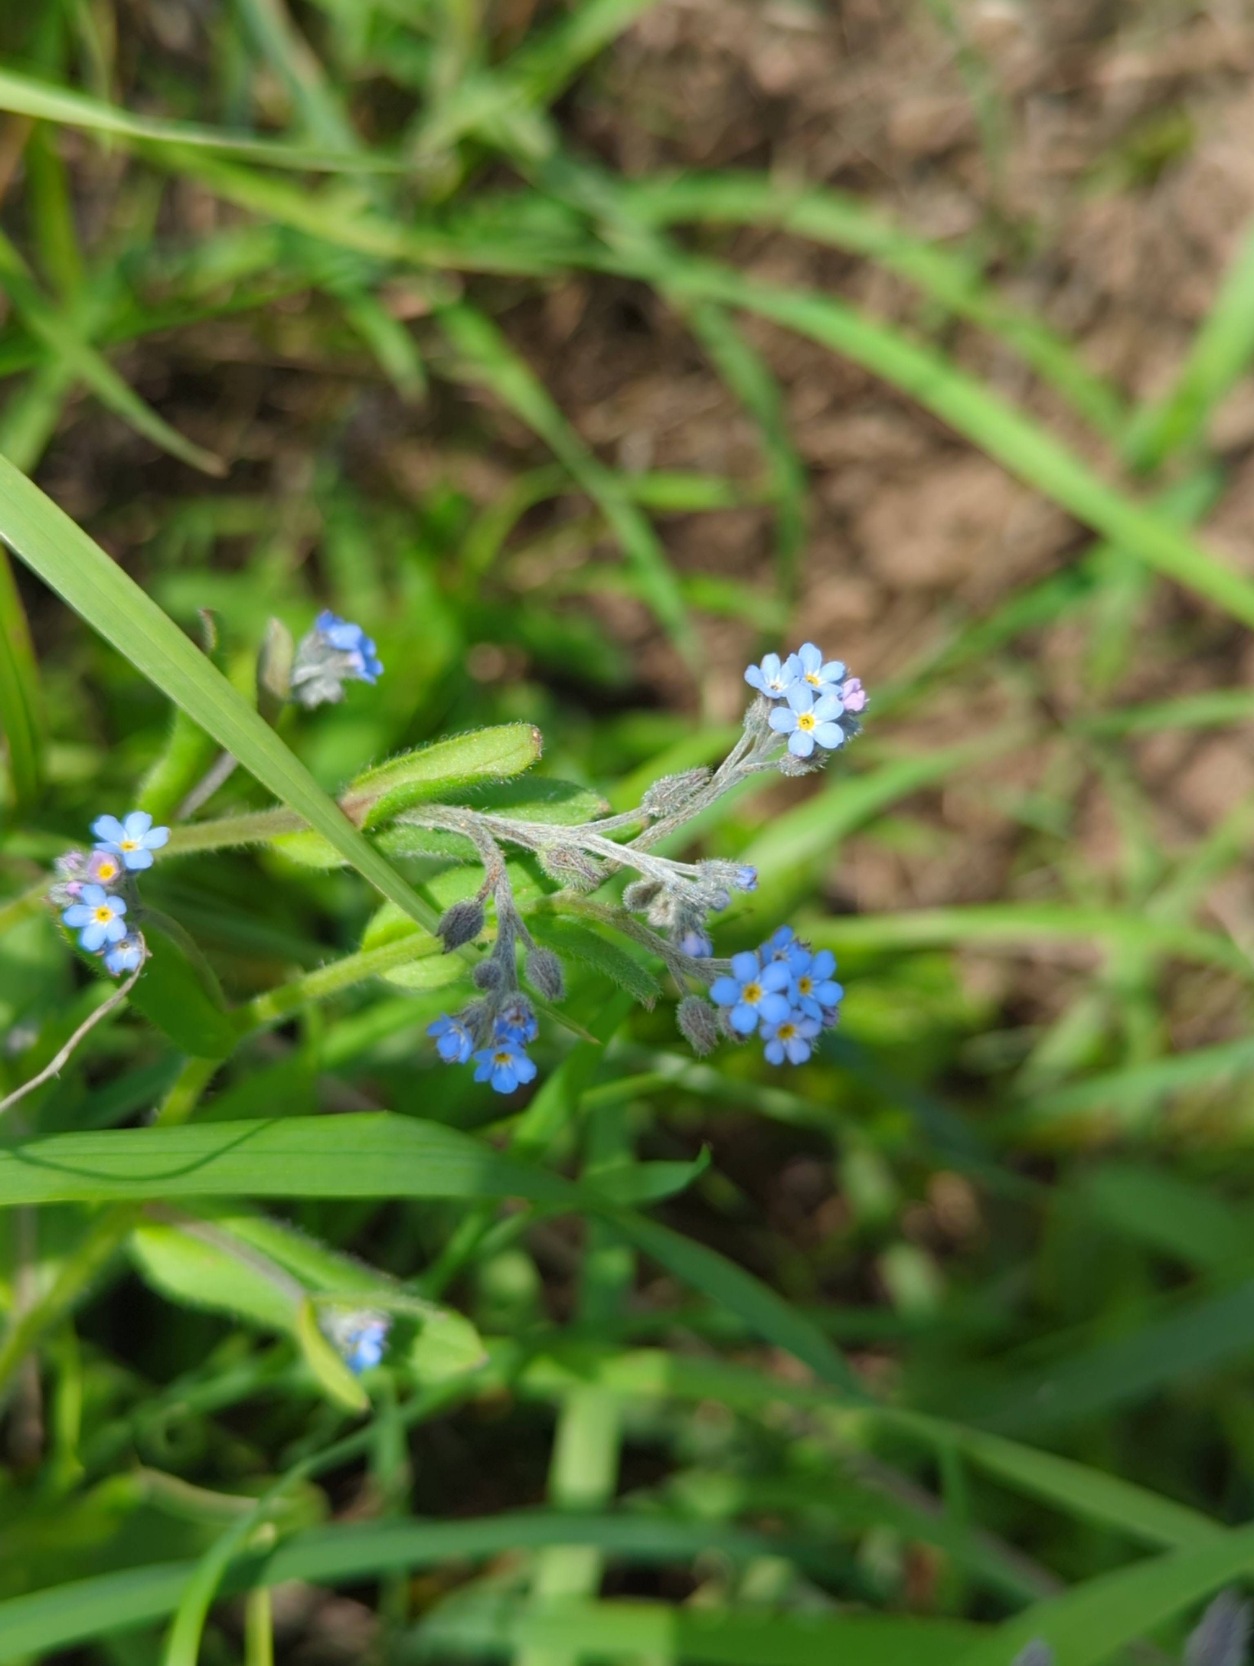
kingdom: Plantae
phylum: Tracheophyta
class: Magnoliopsida
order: Boraginales
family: Boraginaceae
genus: Myosotis
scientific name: Myosotis arvensis
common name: Mark-forglemmigej
